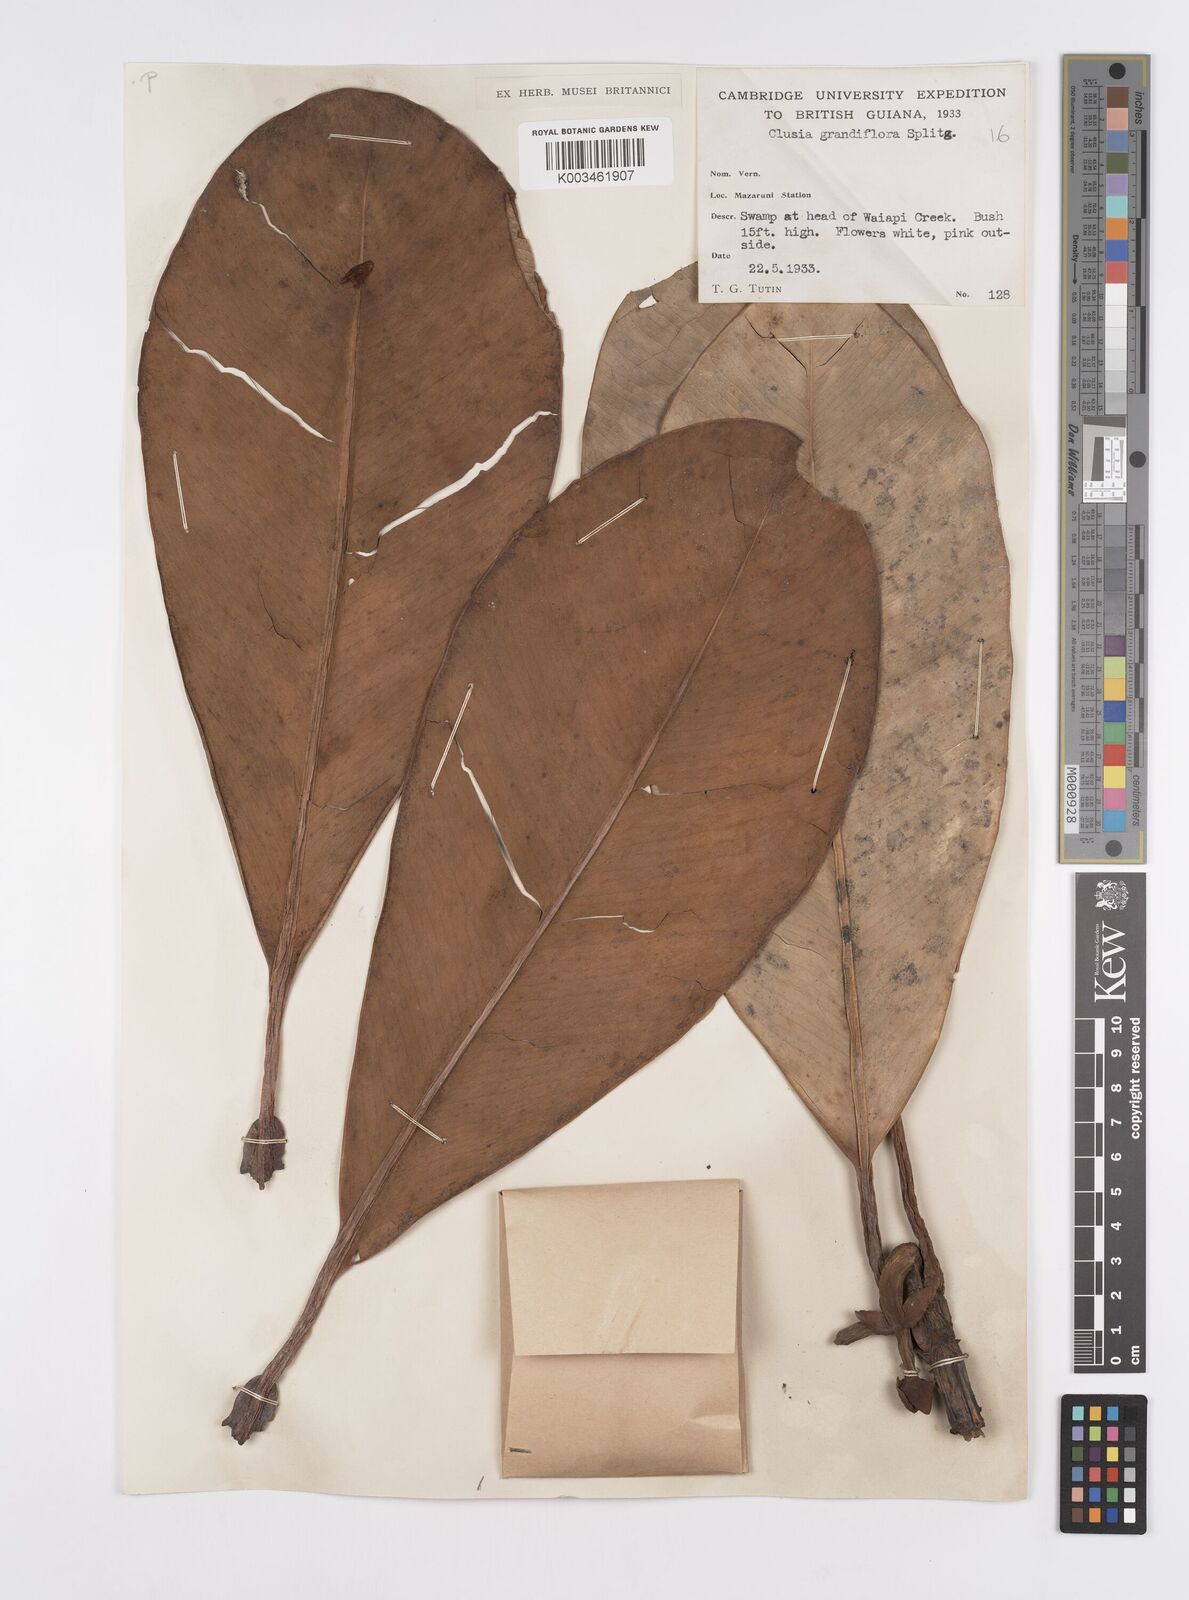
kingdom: Plantae
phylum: Tracheophyta
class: Magnoliopsida
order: Malpighiales
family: Clusiaceae
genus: Clusia
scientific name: Clusia grandiflora
